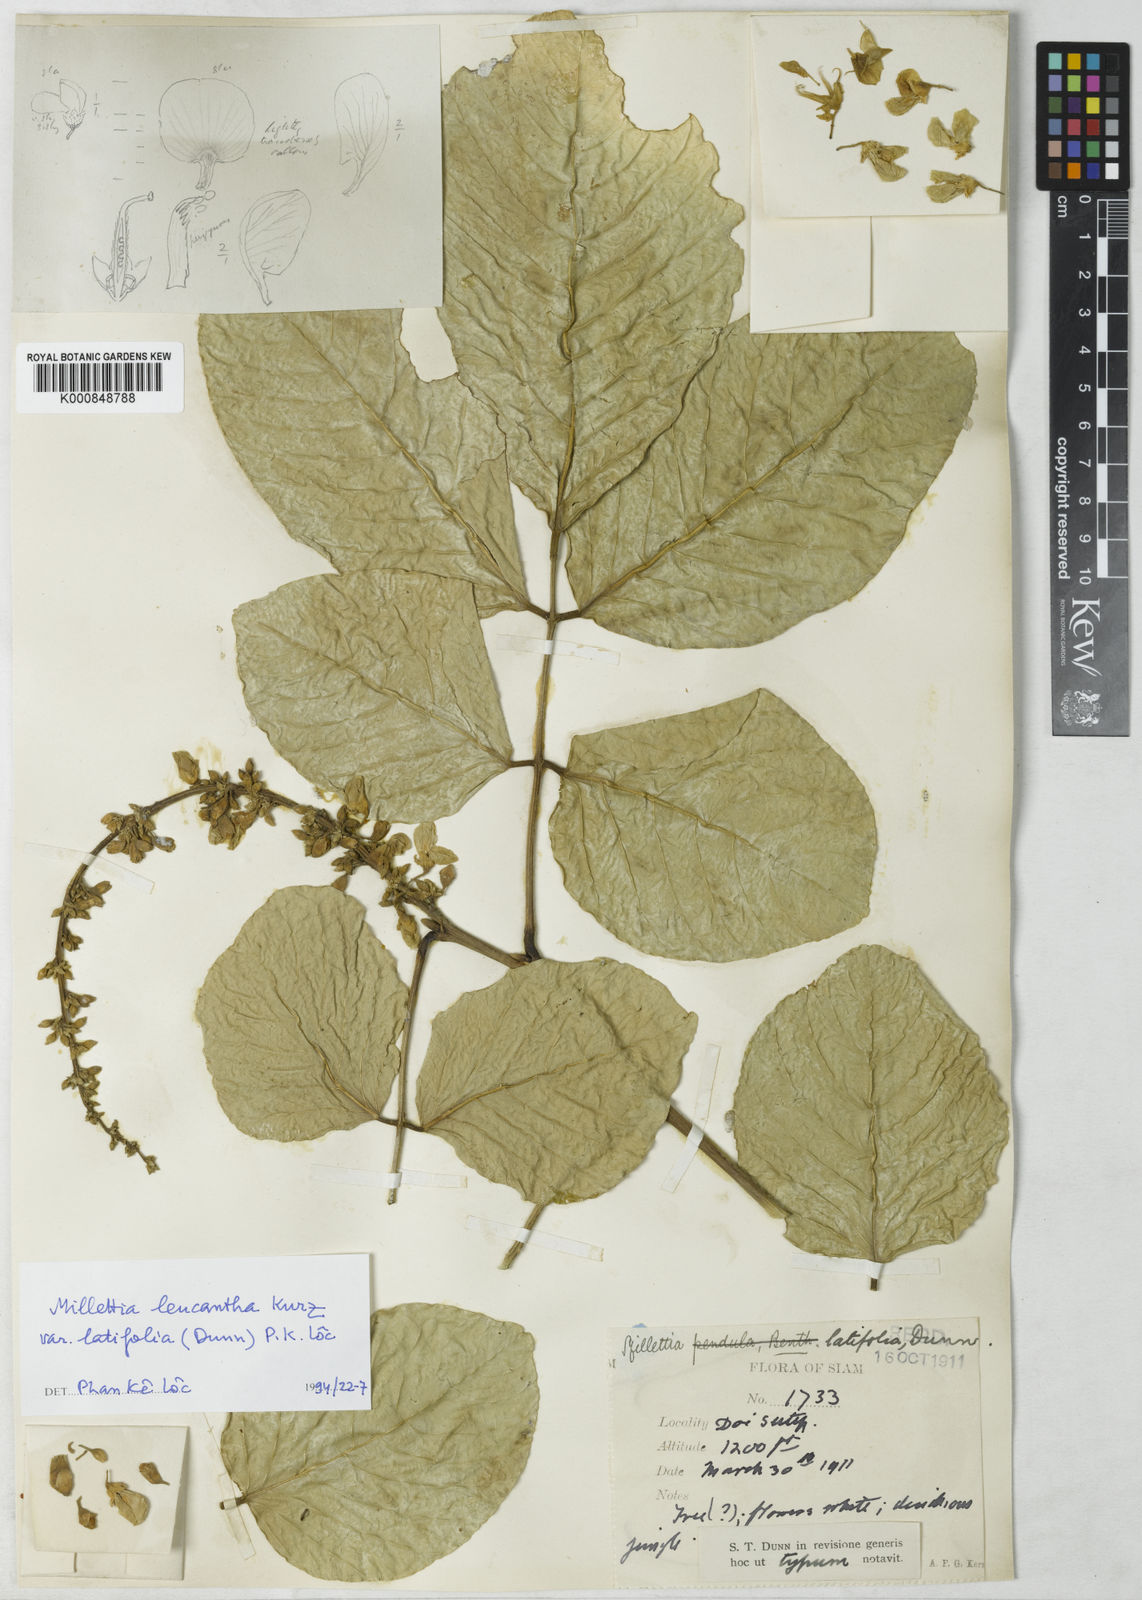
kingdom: Plantae
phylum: Tracheophyta
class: Magnoliopsida
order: Fabales
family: Fabaceae
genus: Imbralyx
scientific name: Imbralyx leucanthus
